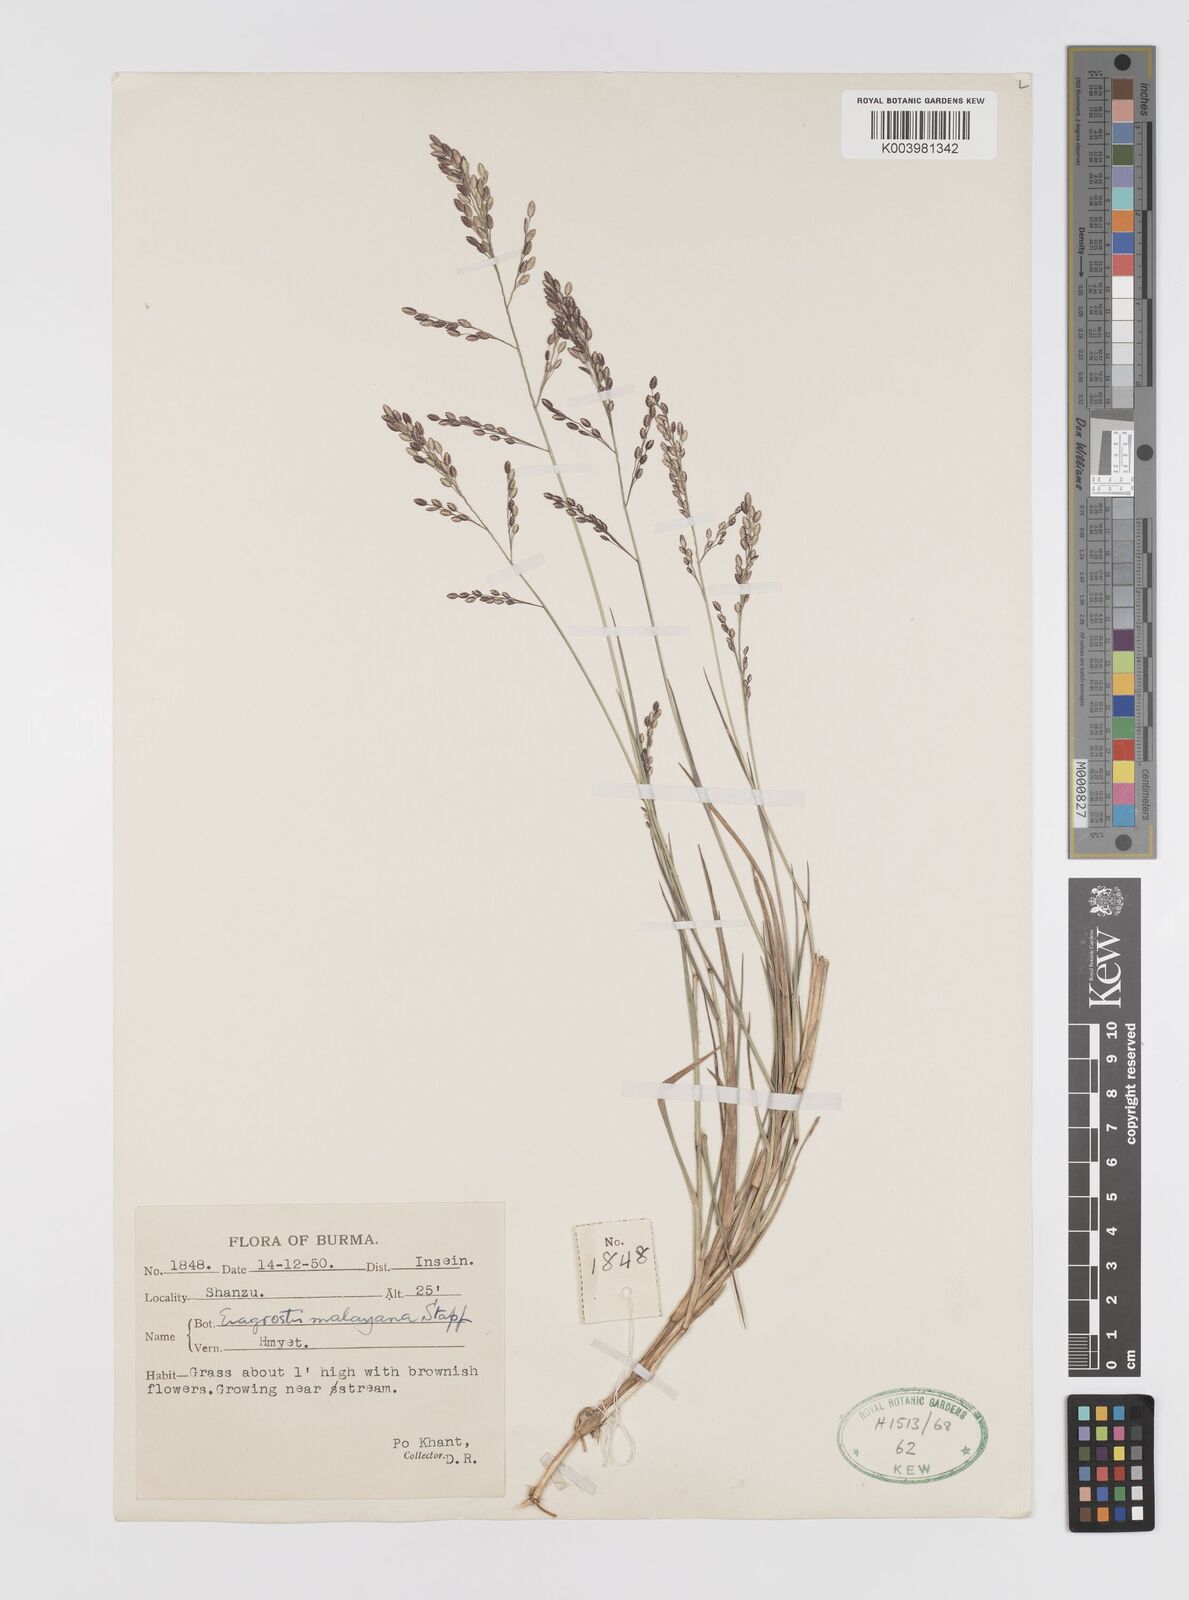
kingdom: Plantae
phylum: Tracheophyta
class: Liliopsida
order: Poales
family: Poaceae
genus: Eragrostis
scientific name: Eragrostis montana
